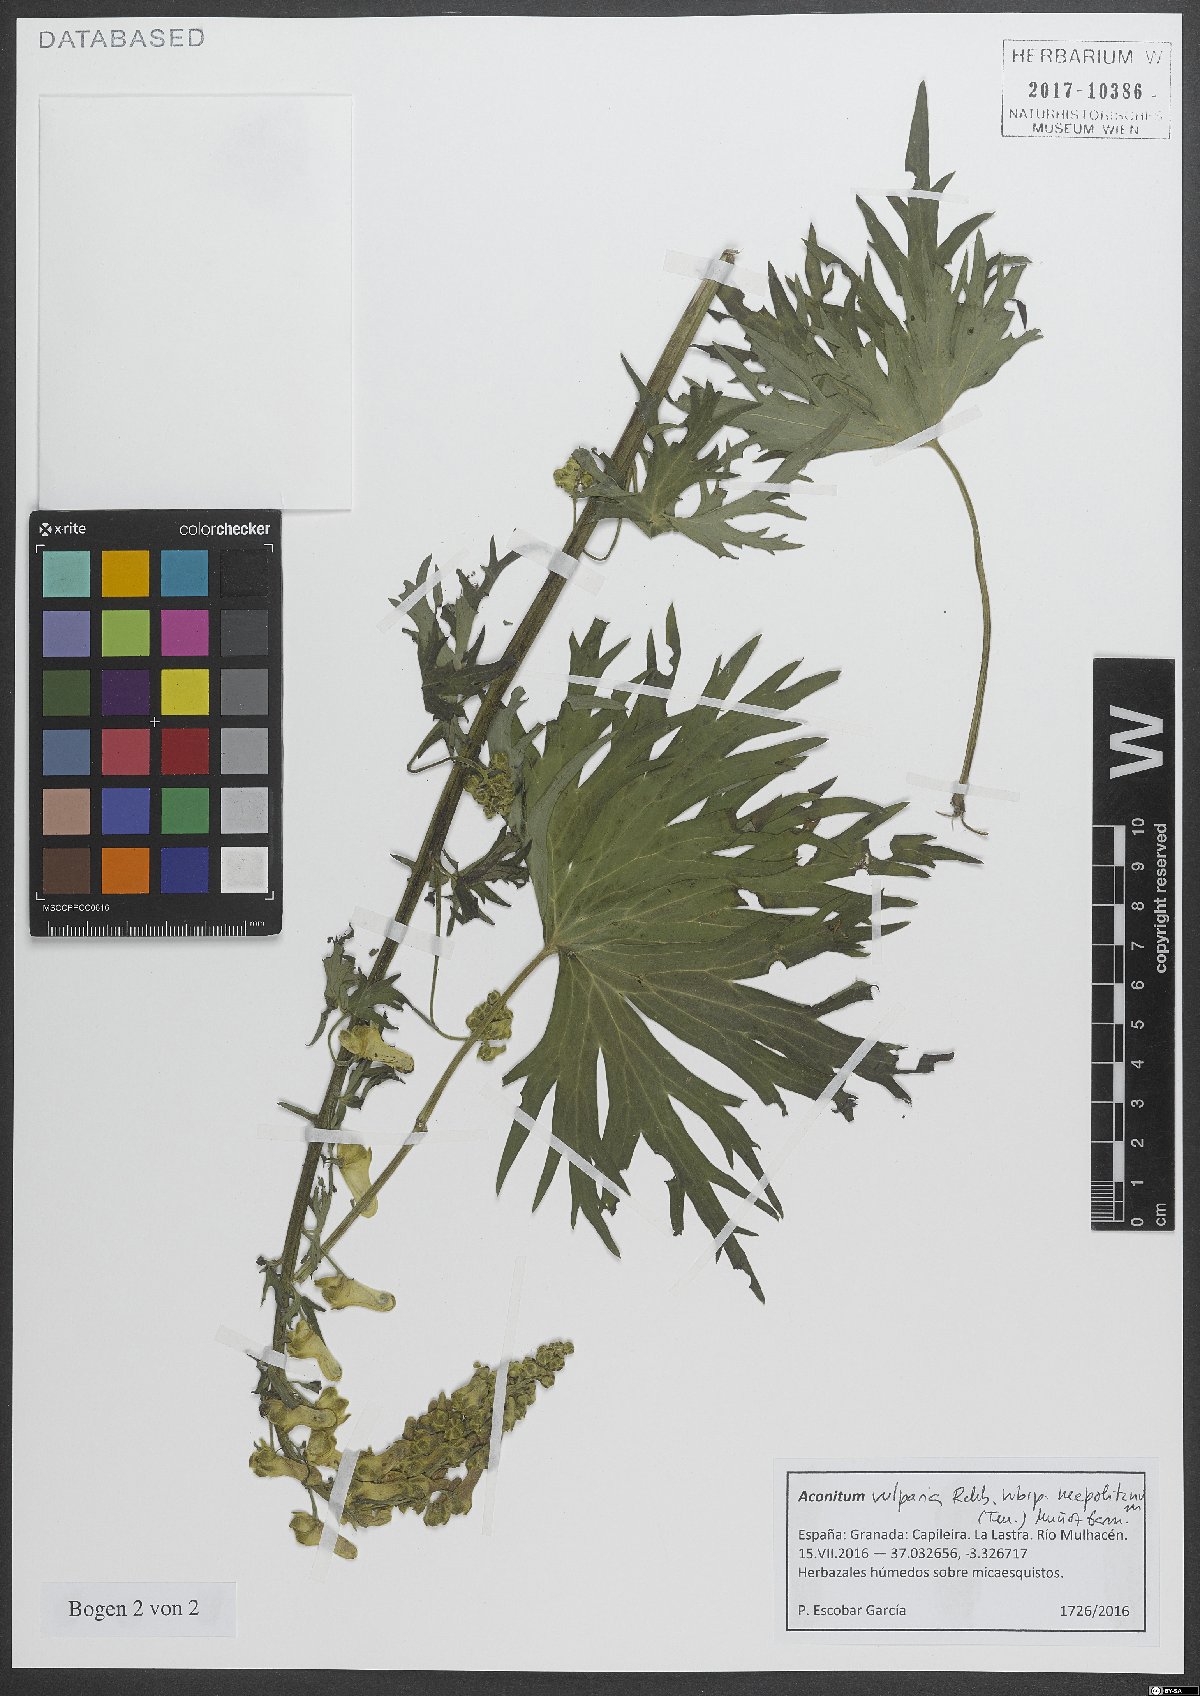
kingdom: Plantae
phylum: Tracheophyta
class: Magnoliopsida
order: Ranunculales
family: Ranunculaceae
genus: Aconitum
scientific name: Aconitum lycoctonum
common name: Wolf's-bane
